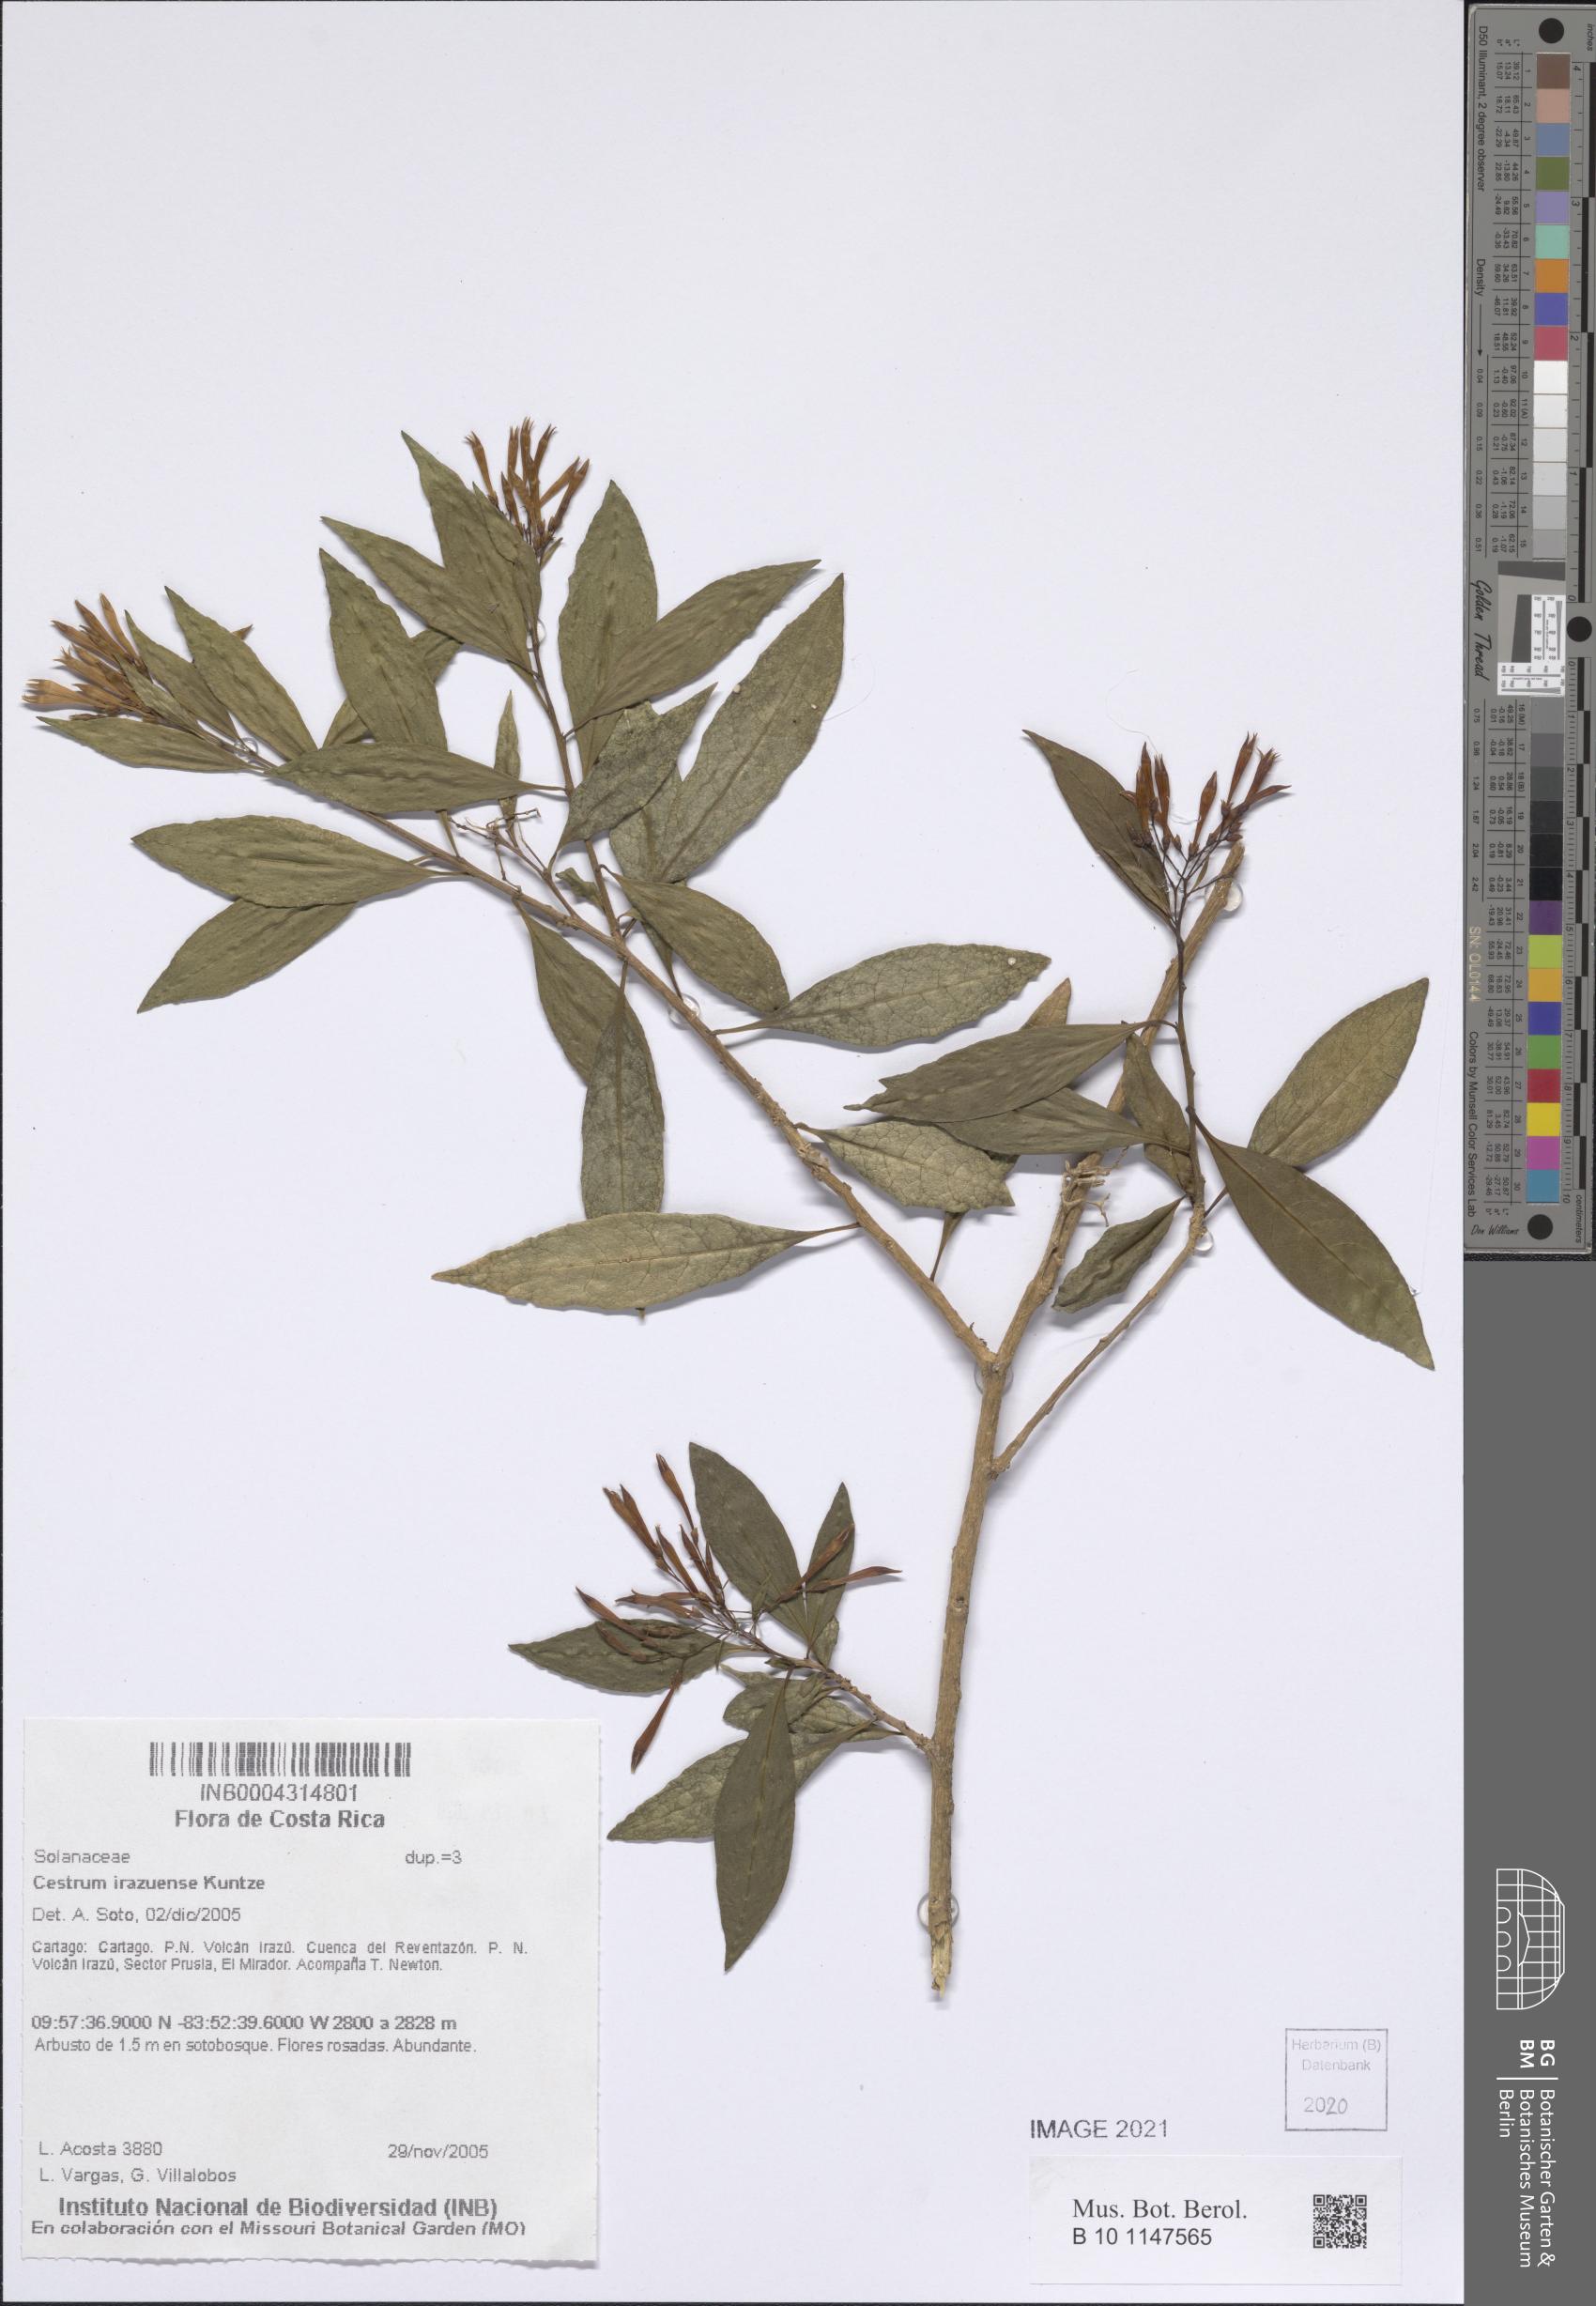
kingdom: Plantae
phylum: Tracheophyta
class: Magnoliopsida
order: Solanales
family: Solanaceae
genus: Cestrum
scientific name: Cestrum irazuense
